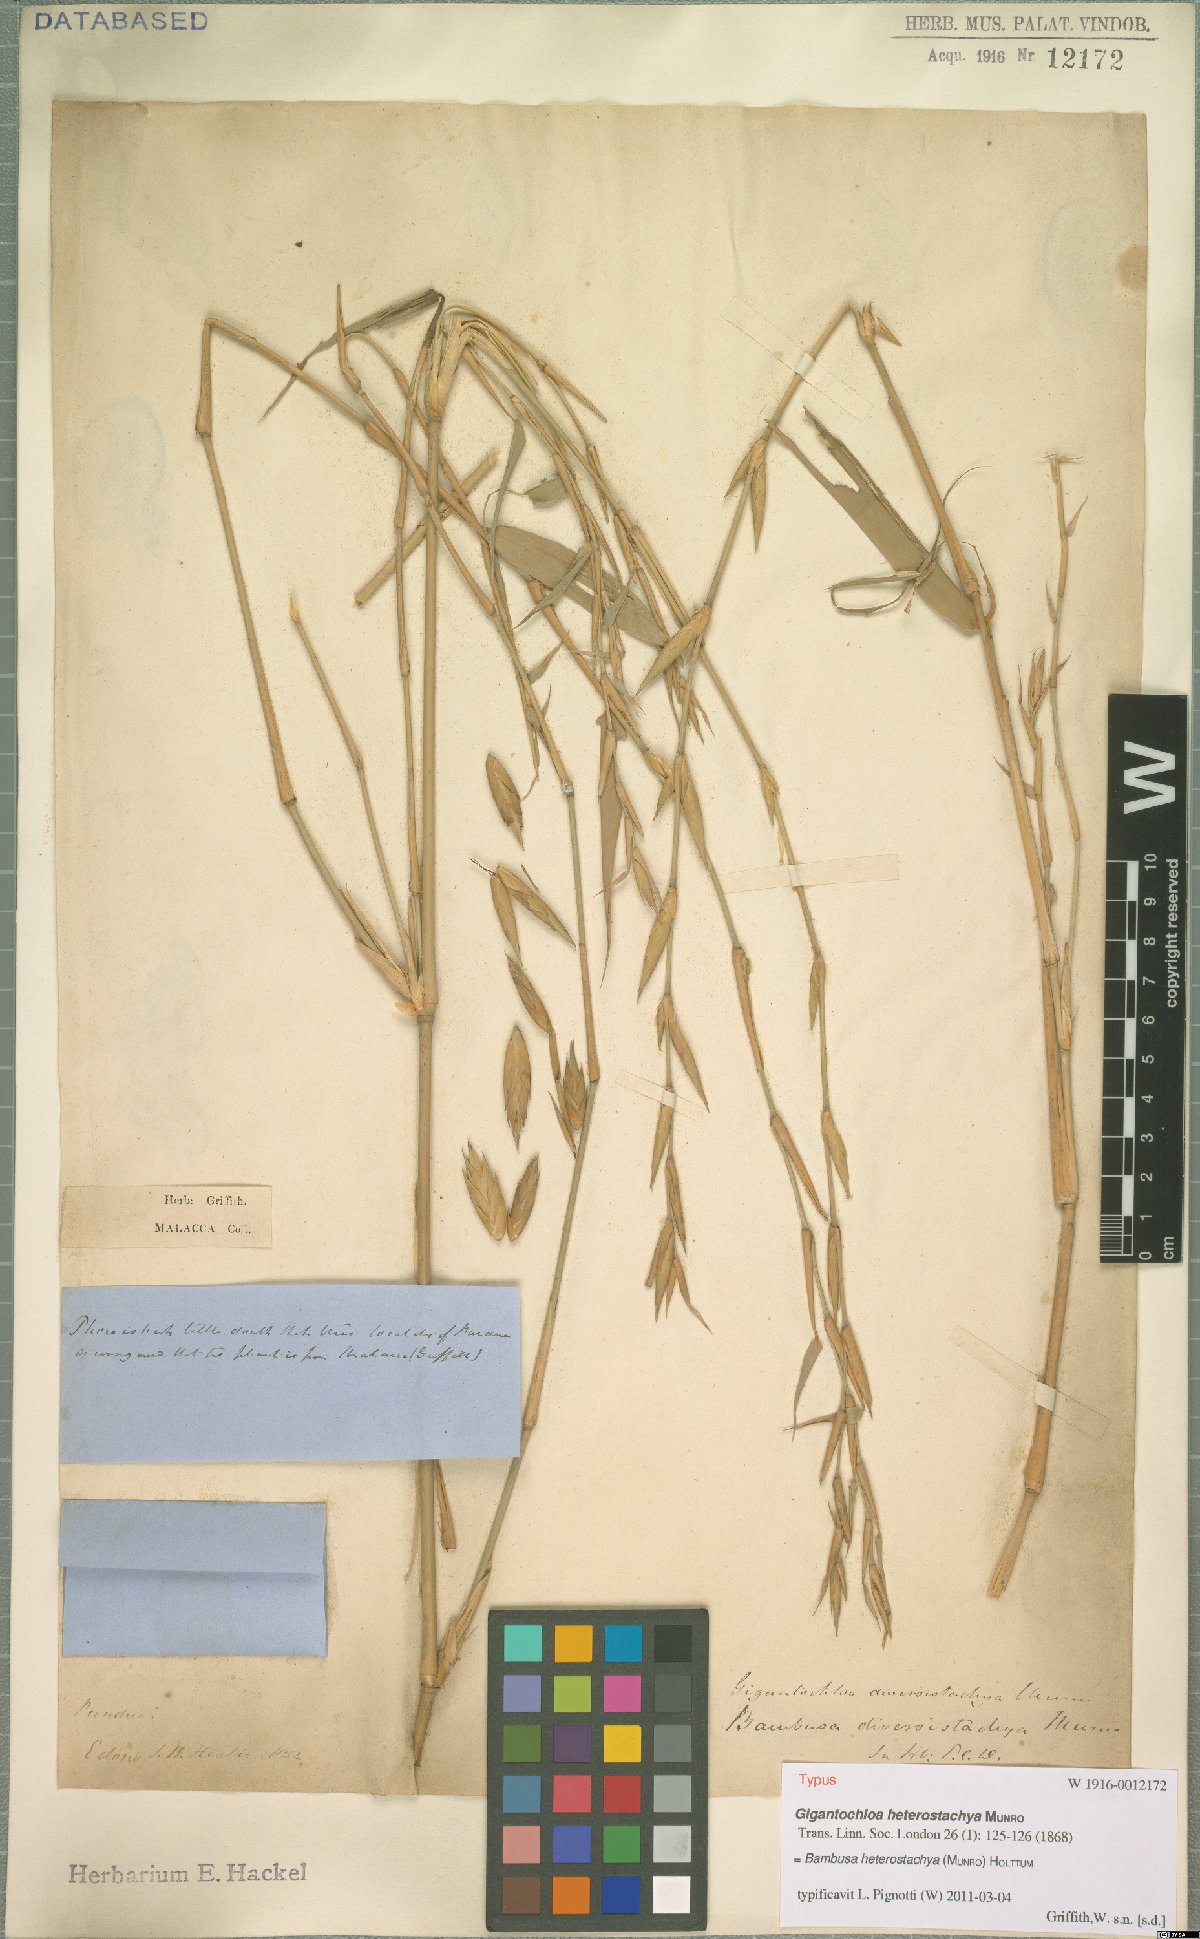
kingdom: Plantae
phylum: Tracheophyta
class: Liliopsida
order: Poales
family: Poaceae
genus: Bambusa
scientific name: Bambusa heterostachya
